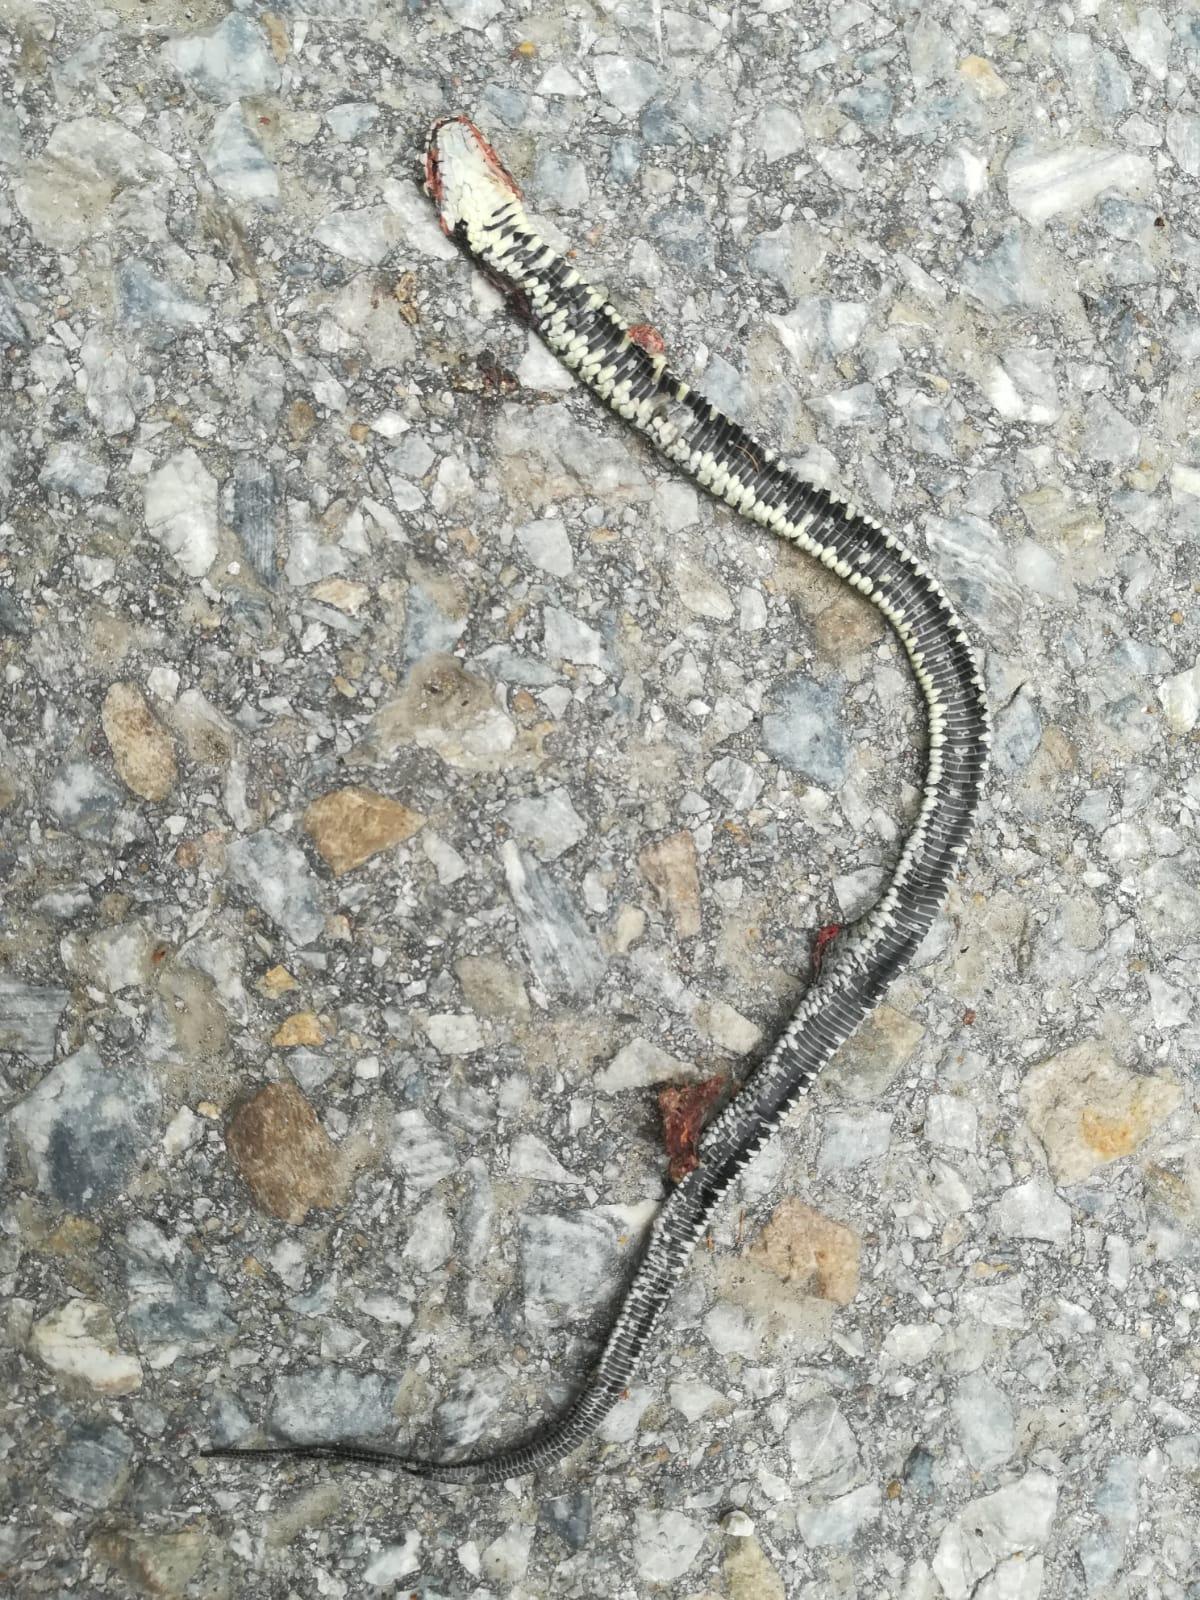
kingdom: Animalia
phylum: Chordata
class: Squamata
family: Colubridae
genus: Natrix
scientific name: Natrix natrix
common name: Grass snake
